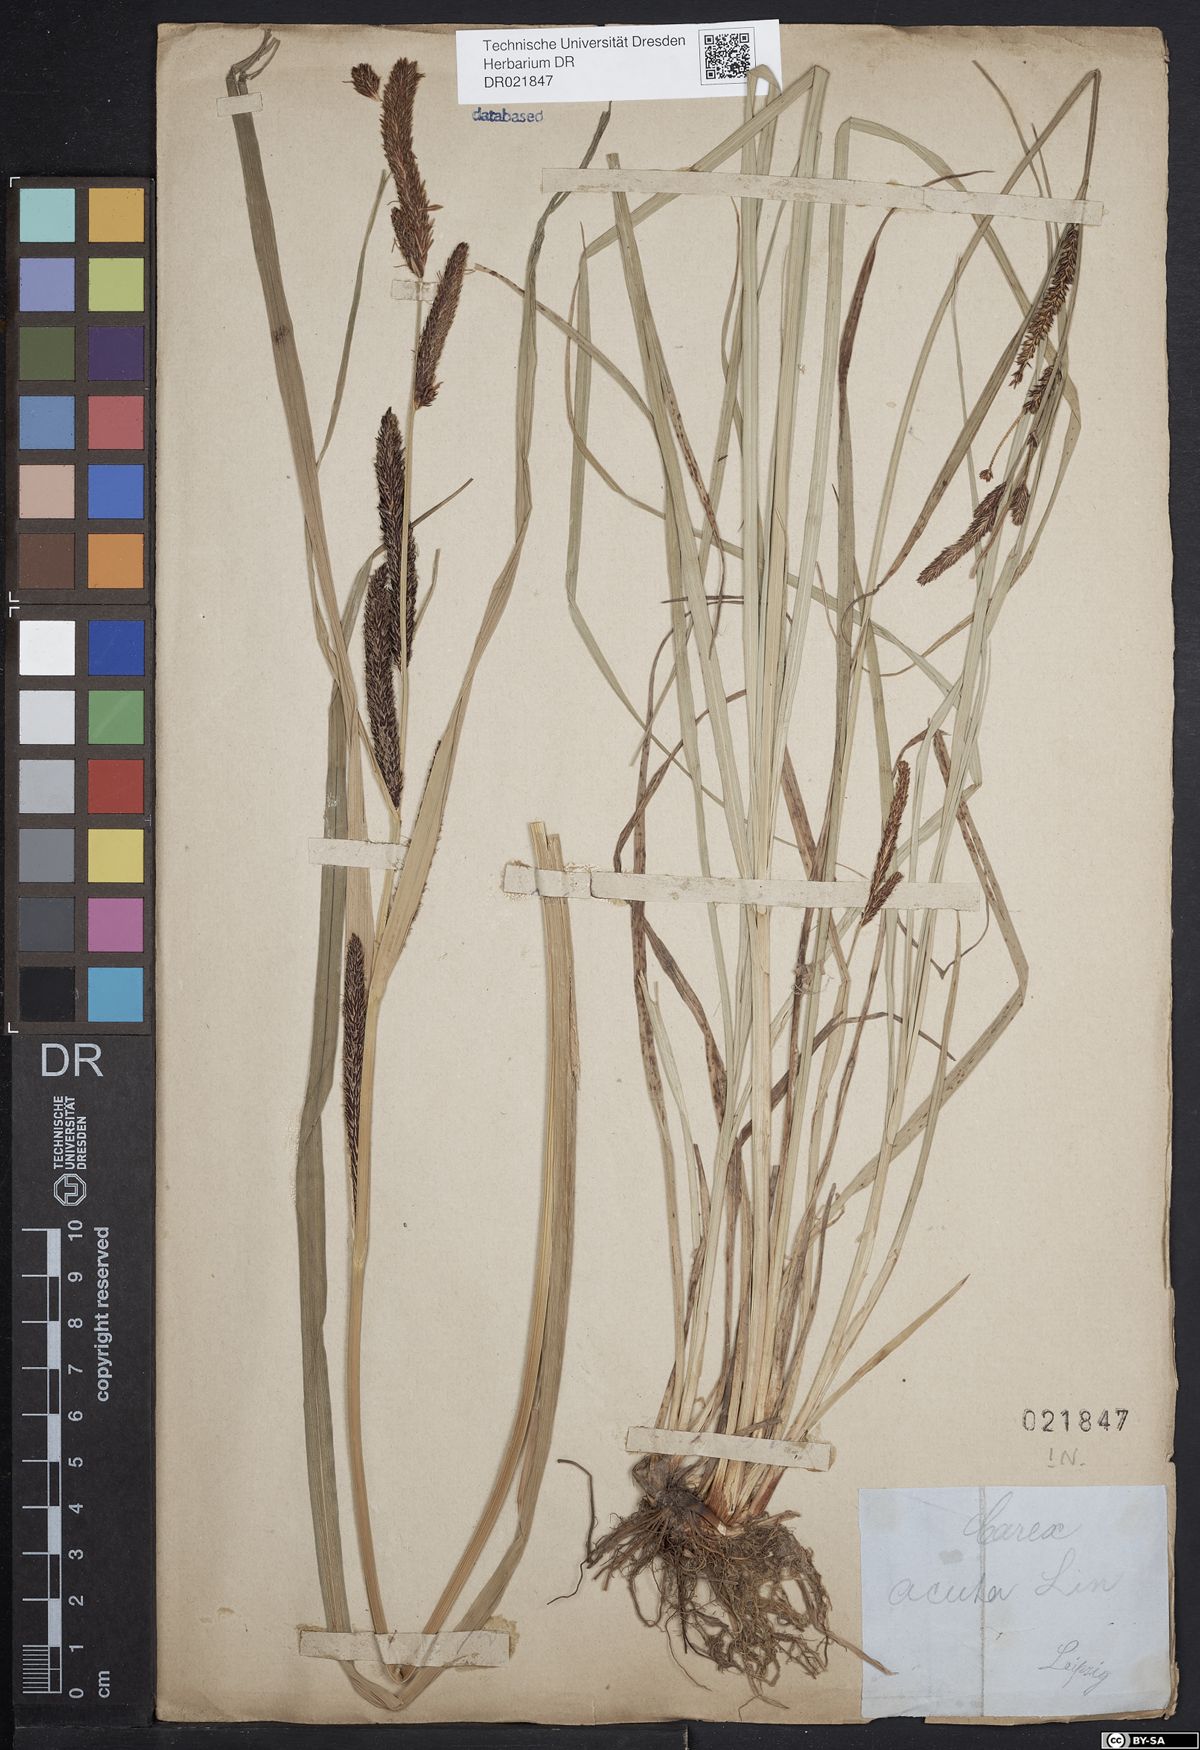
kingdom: Plantae
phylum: Tracheophyta
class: Liliopsida
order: Poales
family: Cyperaceae
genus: Carex
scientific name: Carex acuta
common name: Slender tufted-sedge
